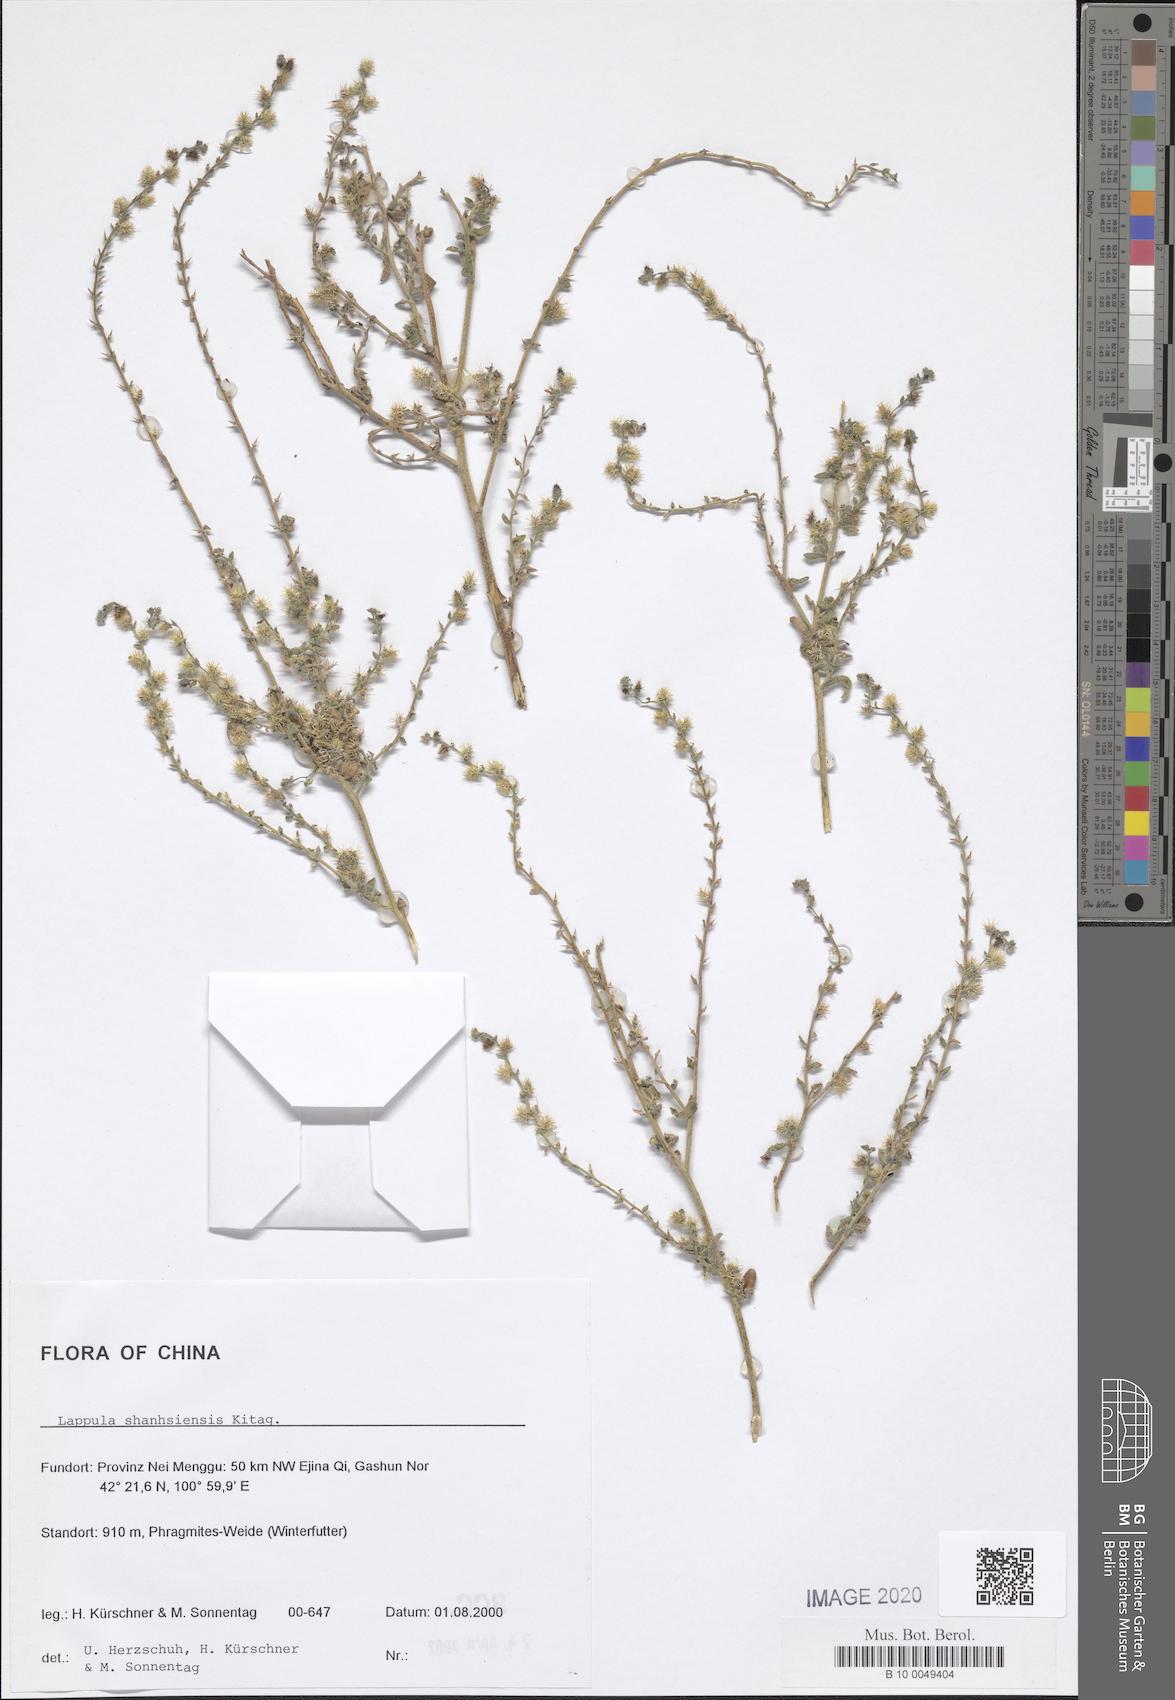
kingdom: Plantae
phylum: Tracheophyta
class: Magnoliopsida
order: Boraginales
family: Boraginaceae
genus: Lappula
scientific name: Lappula shanhsiensis
